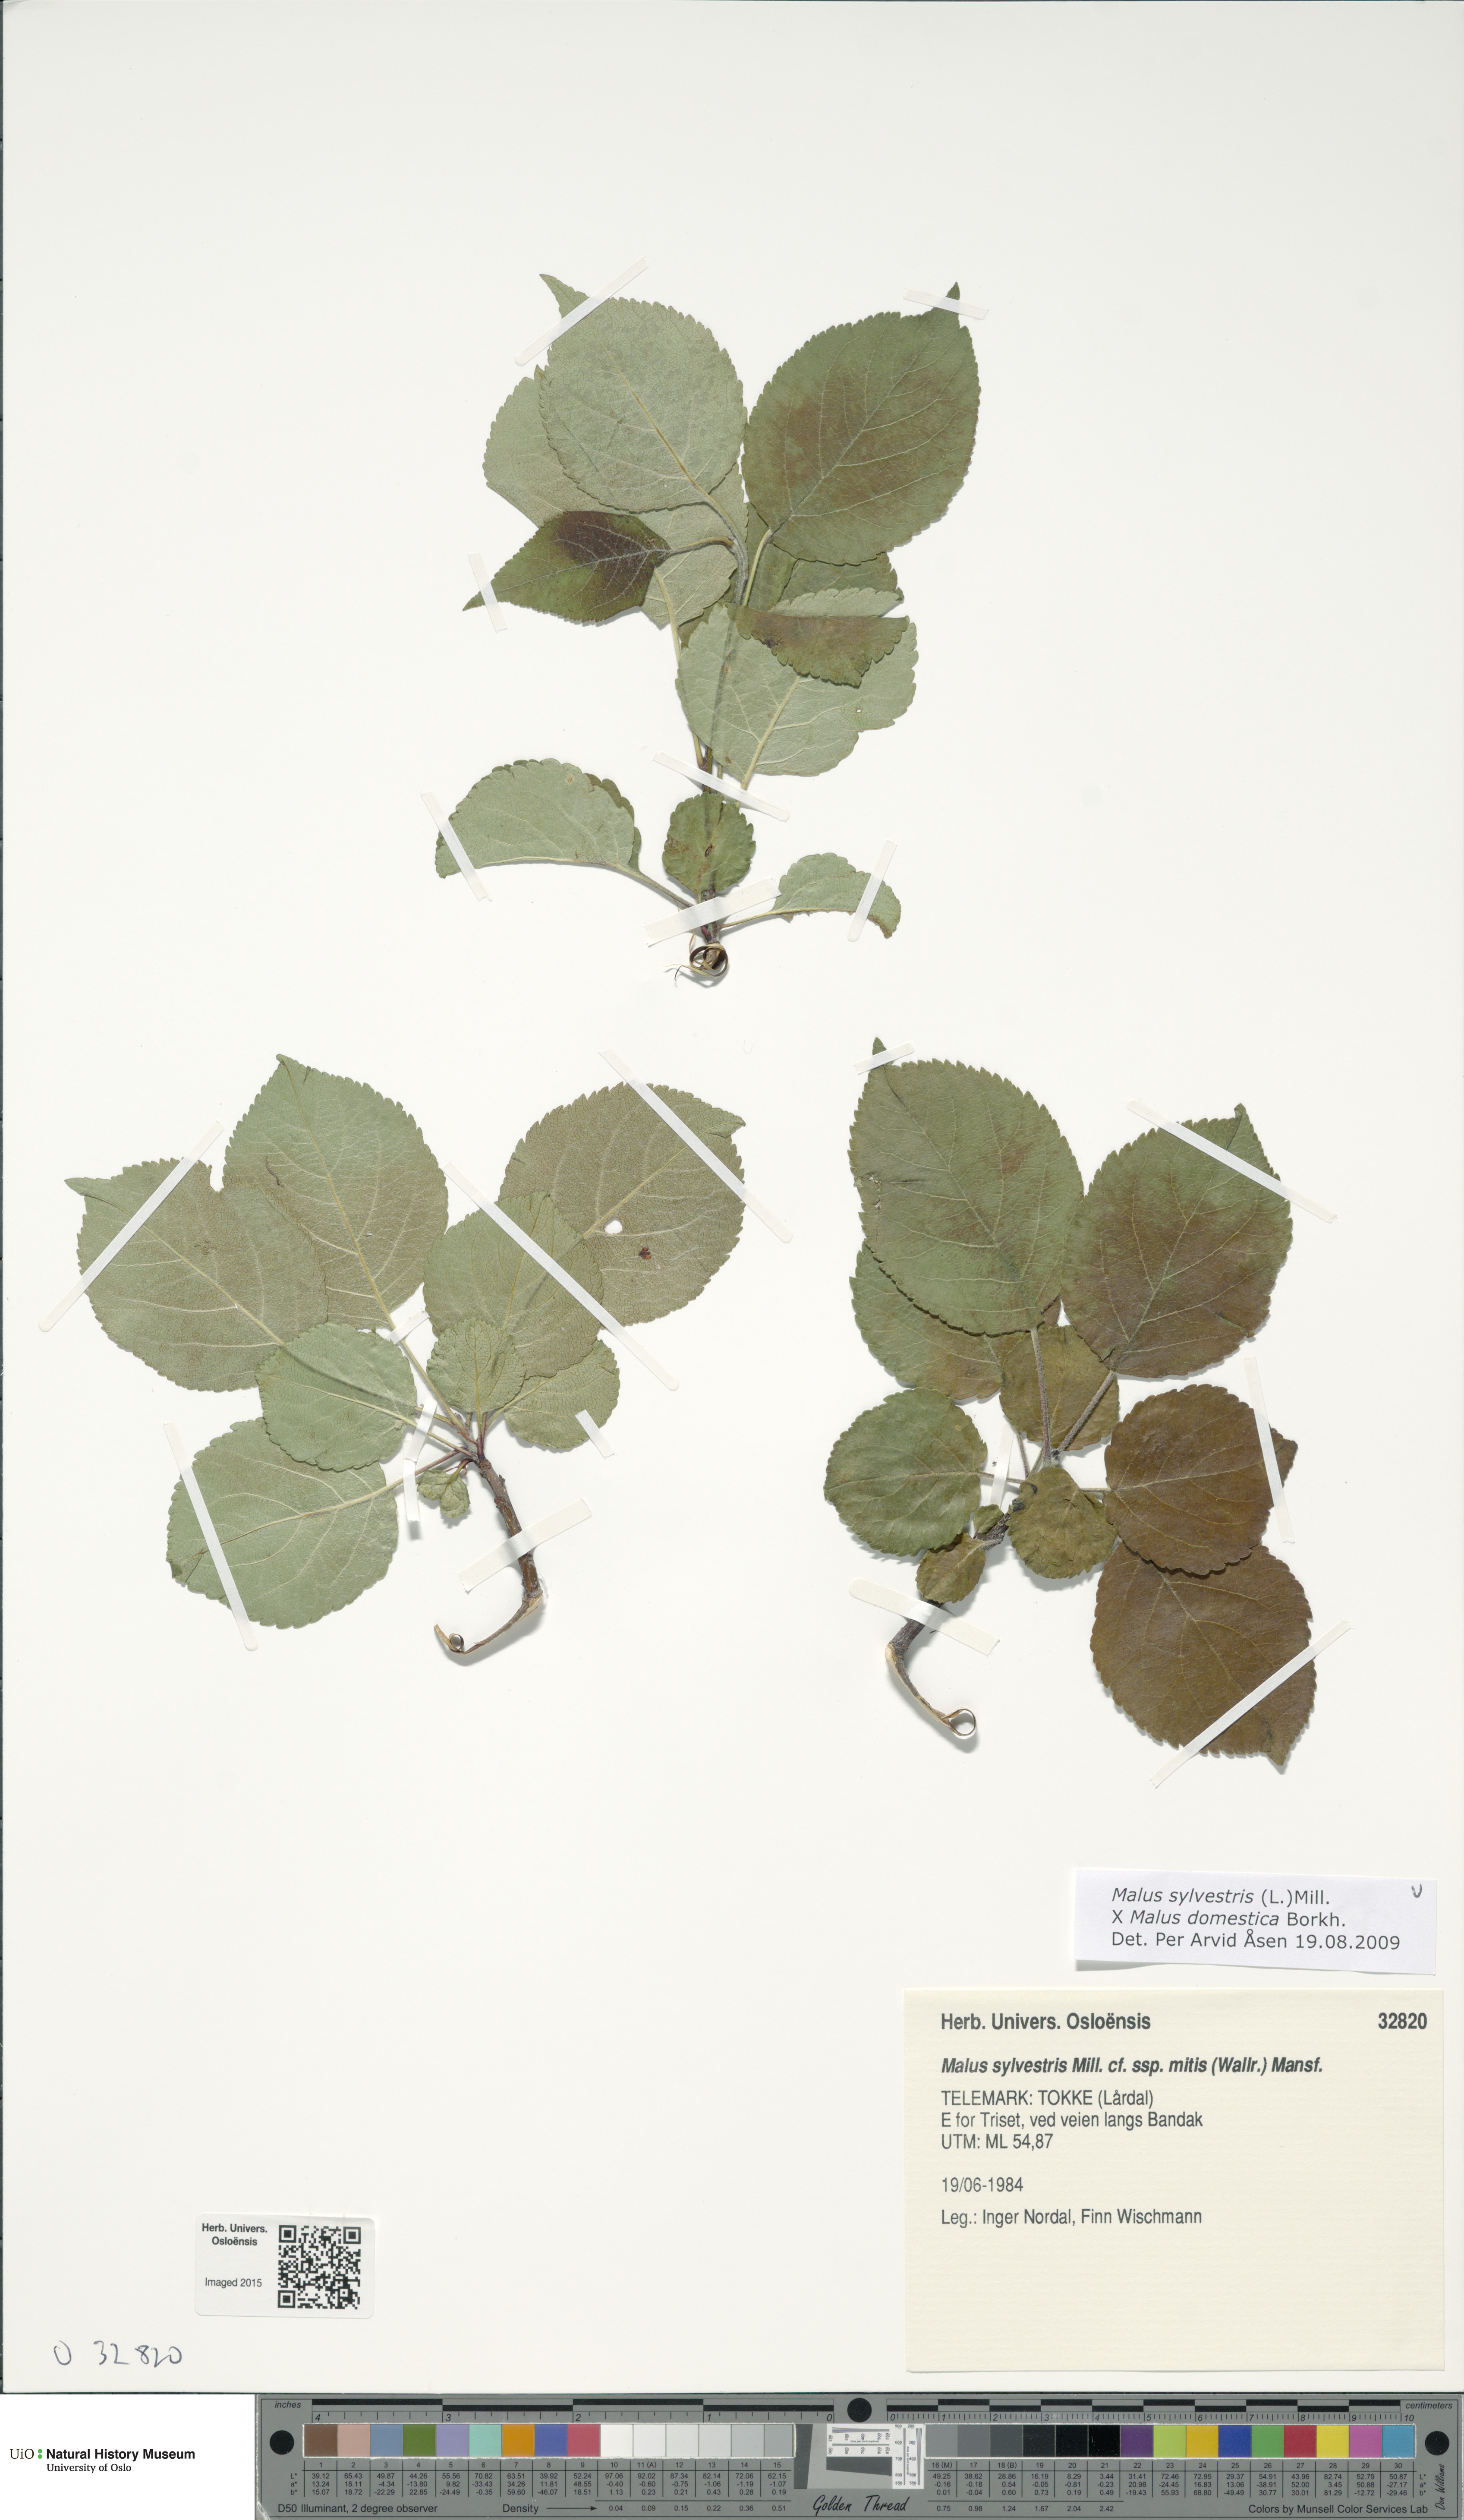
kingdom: Plantae
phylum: Tracheophyta
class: Magnoliopsida
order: Rosales
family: Rosaceae
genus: Malus
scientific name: Malus
